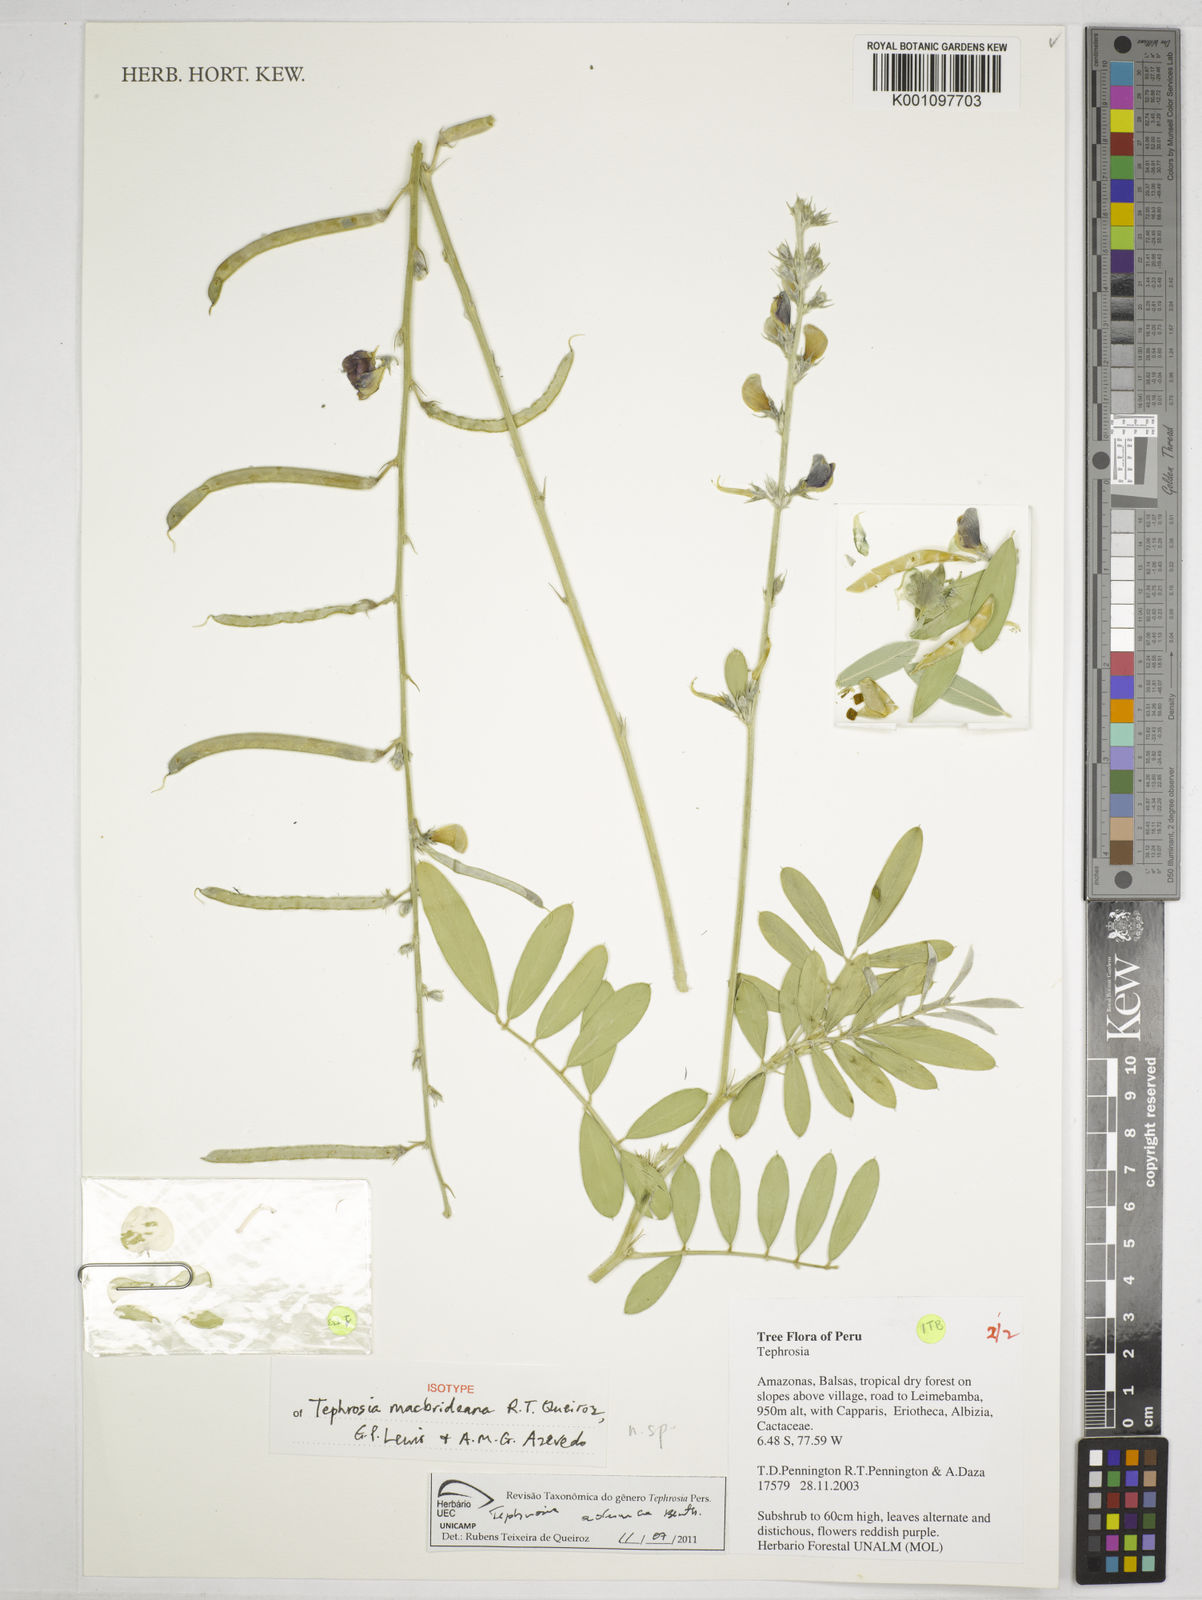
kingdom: Plantae
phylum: Tracheophyta
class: Magnoliopsida
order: Fabales
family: Fabaceae
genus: Tephrosia
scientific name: Tephrosia macbrideana
